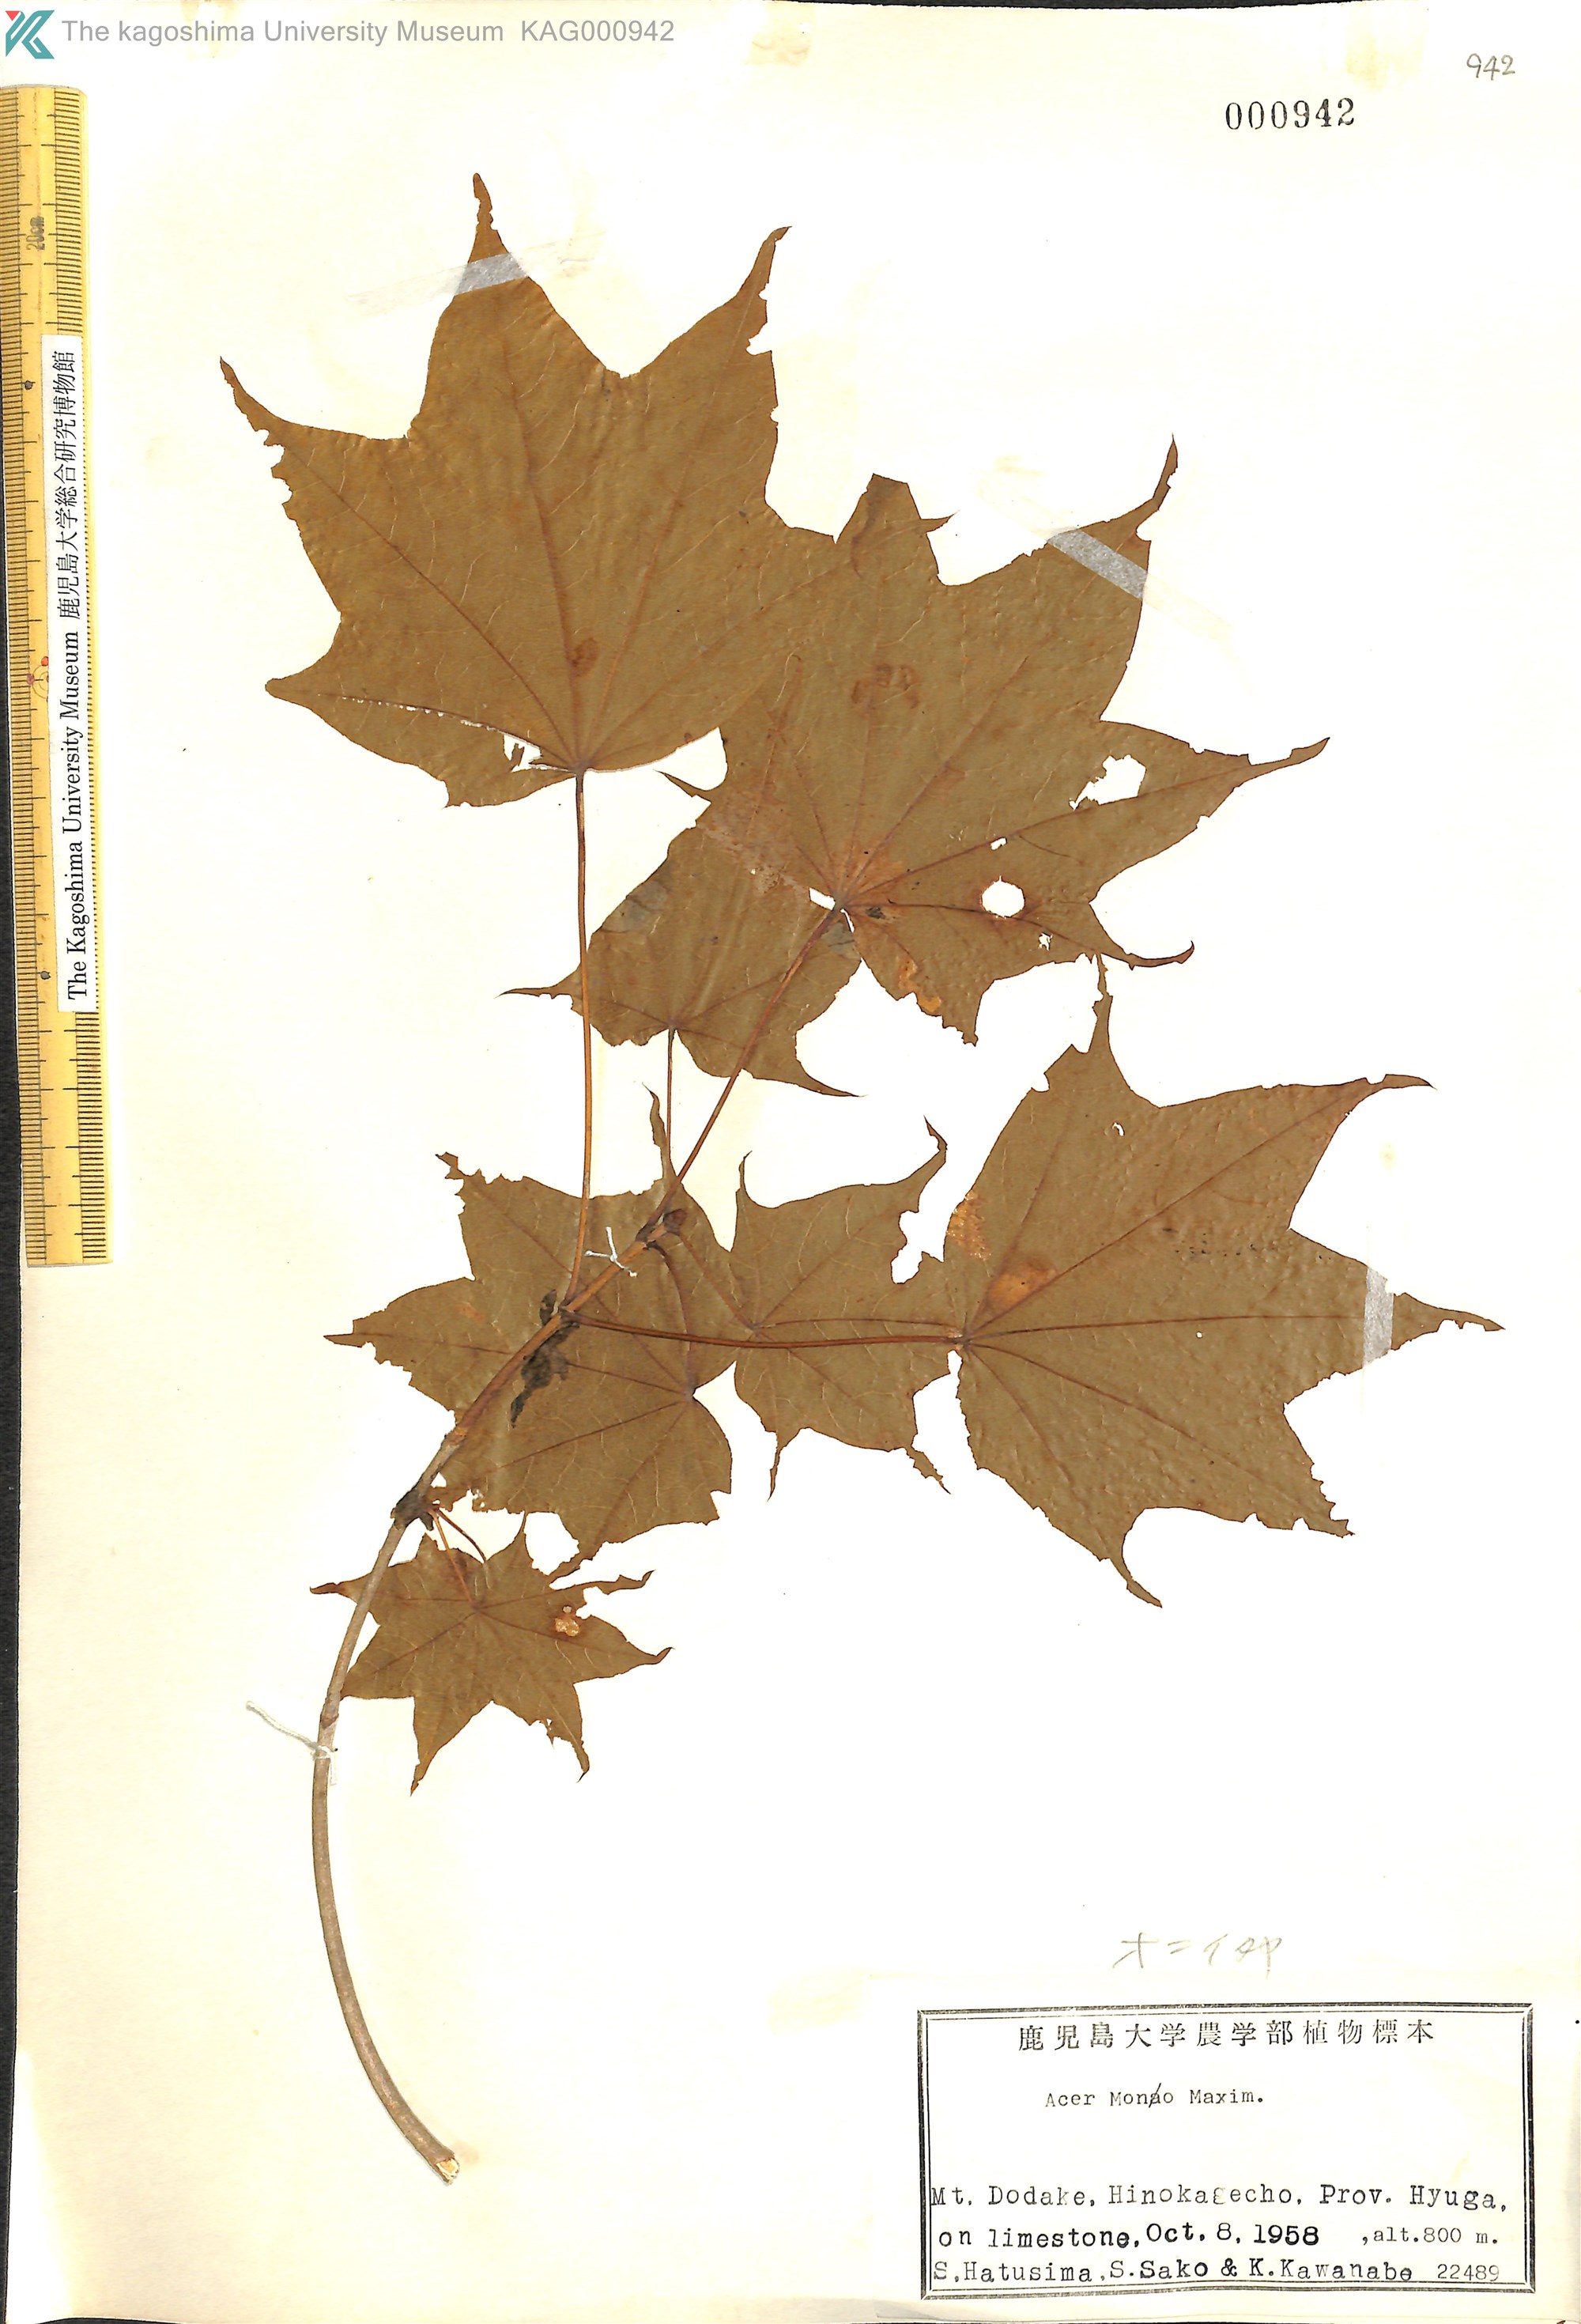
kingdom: Plantae
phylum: Tracheophyta
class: Magnoliopsida
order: Sapindales
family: Sapindaceae
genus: Acer
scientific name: Acer pictum
